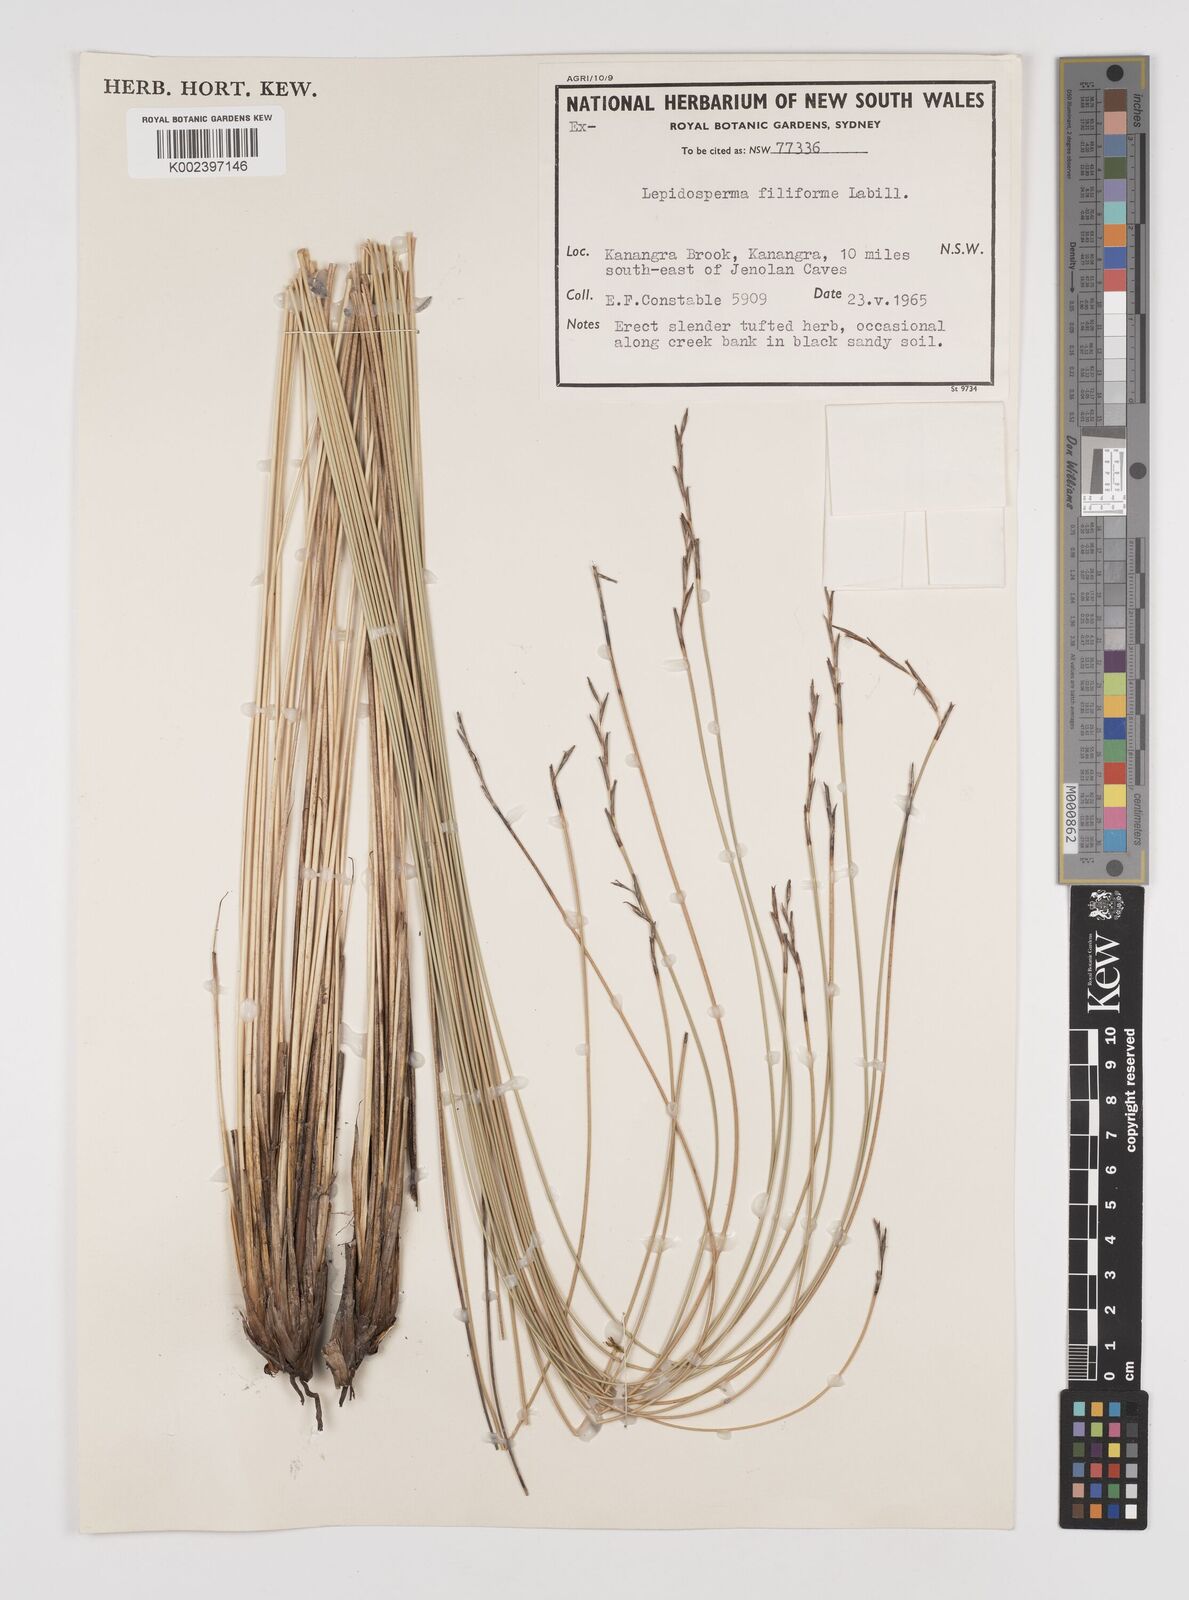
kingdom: Plantae
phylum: Tracheophyta
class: Liliopsida
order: Poales
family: Cyperaceae
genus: Lepidosperma
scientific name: Lepidosperma filiforme
